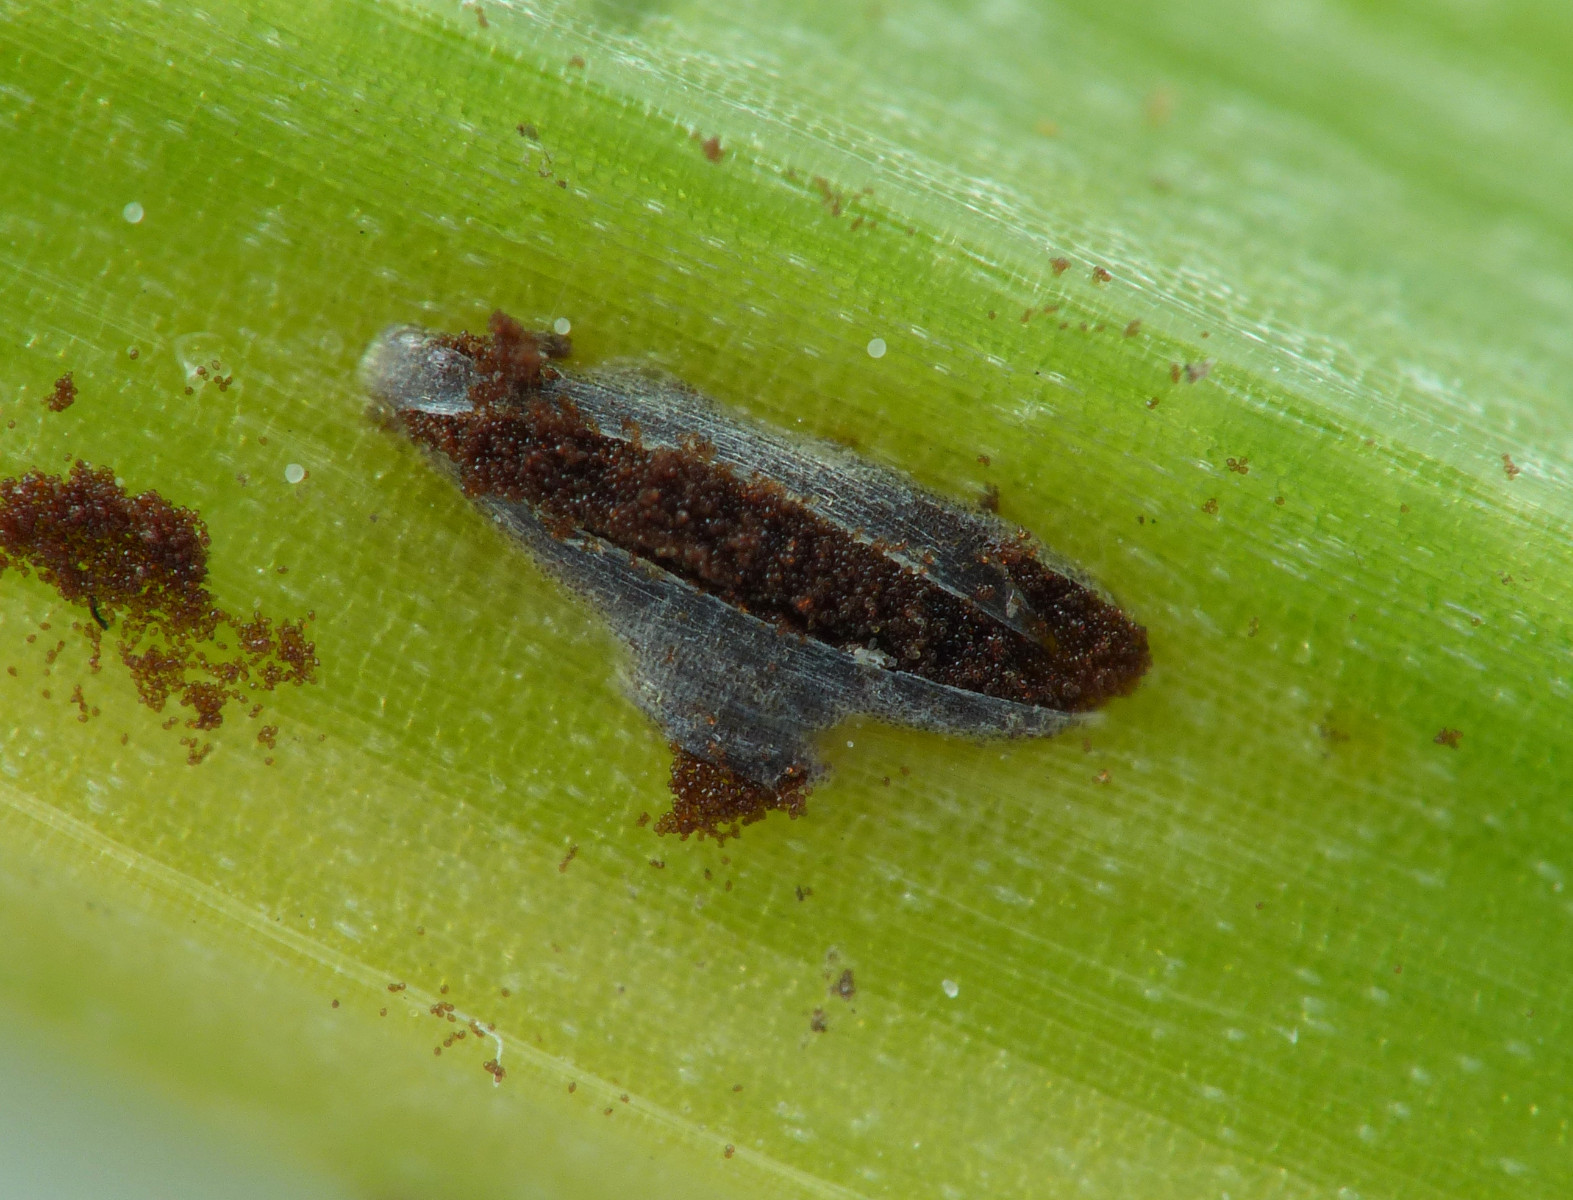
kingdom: Fungi
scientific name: Fungi
